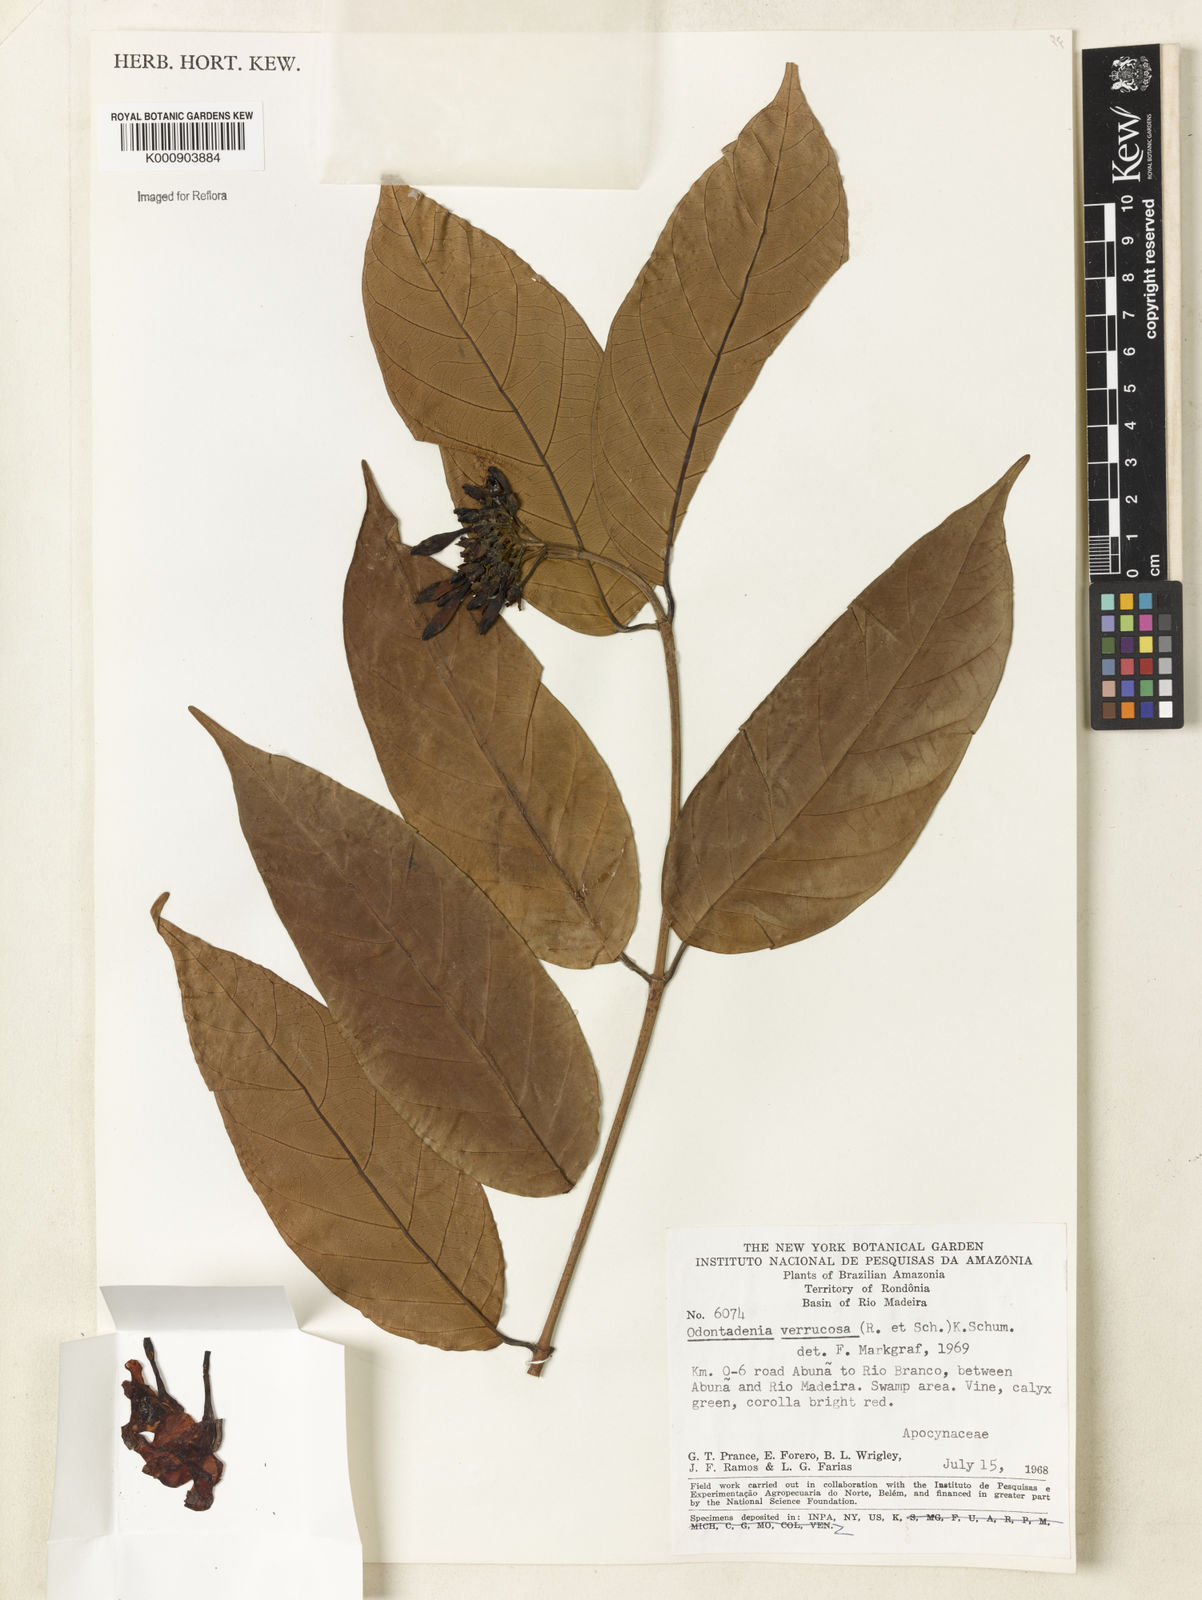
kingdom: Plantae
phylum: Tracheophyta
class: Magnoliopsida
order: Gentianales
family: Apocynaceae
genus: Odontadenia
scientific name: Odontadenia verrucosa
